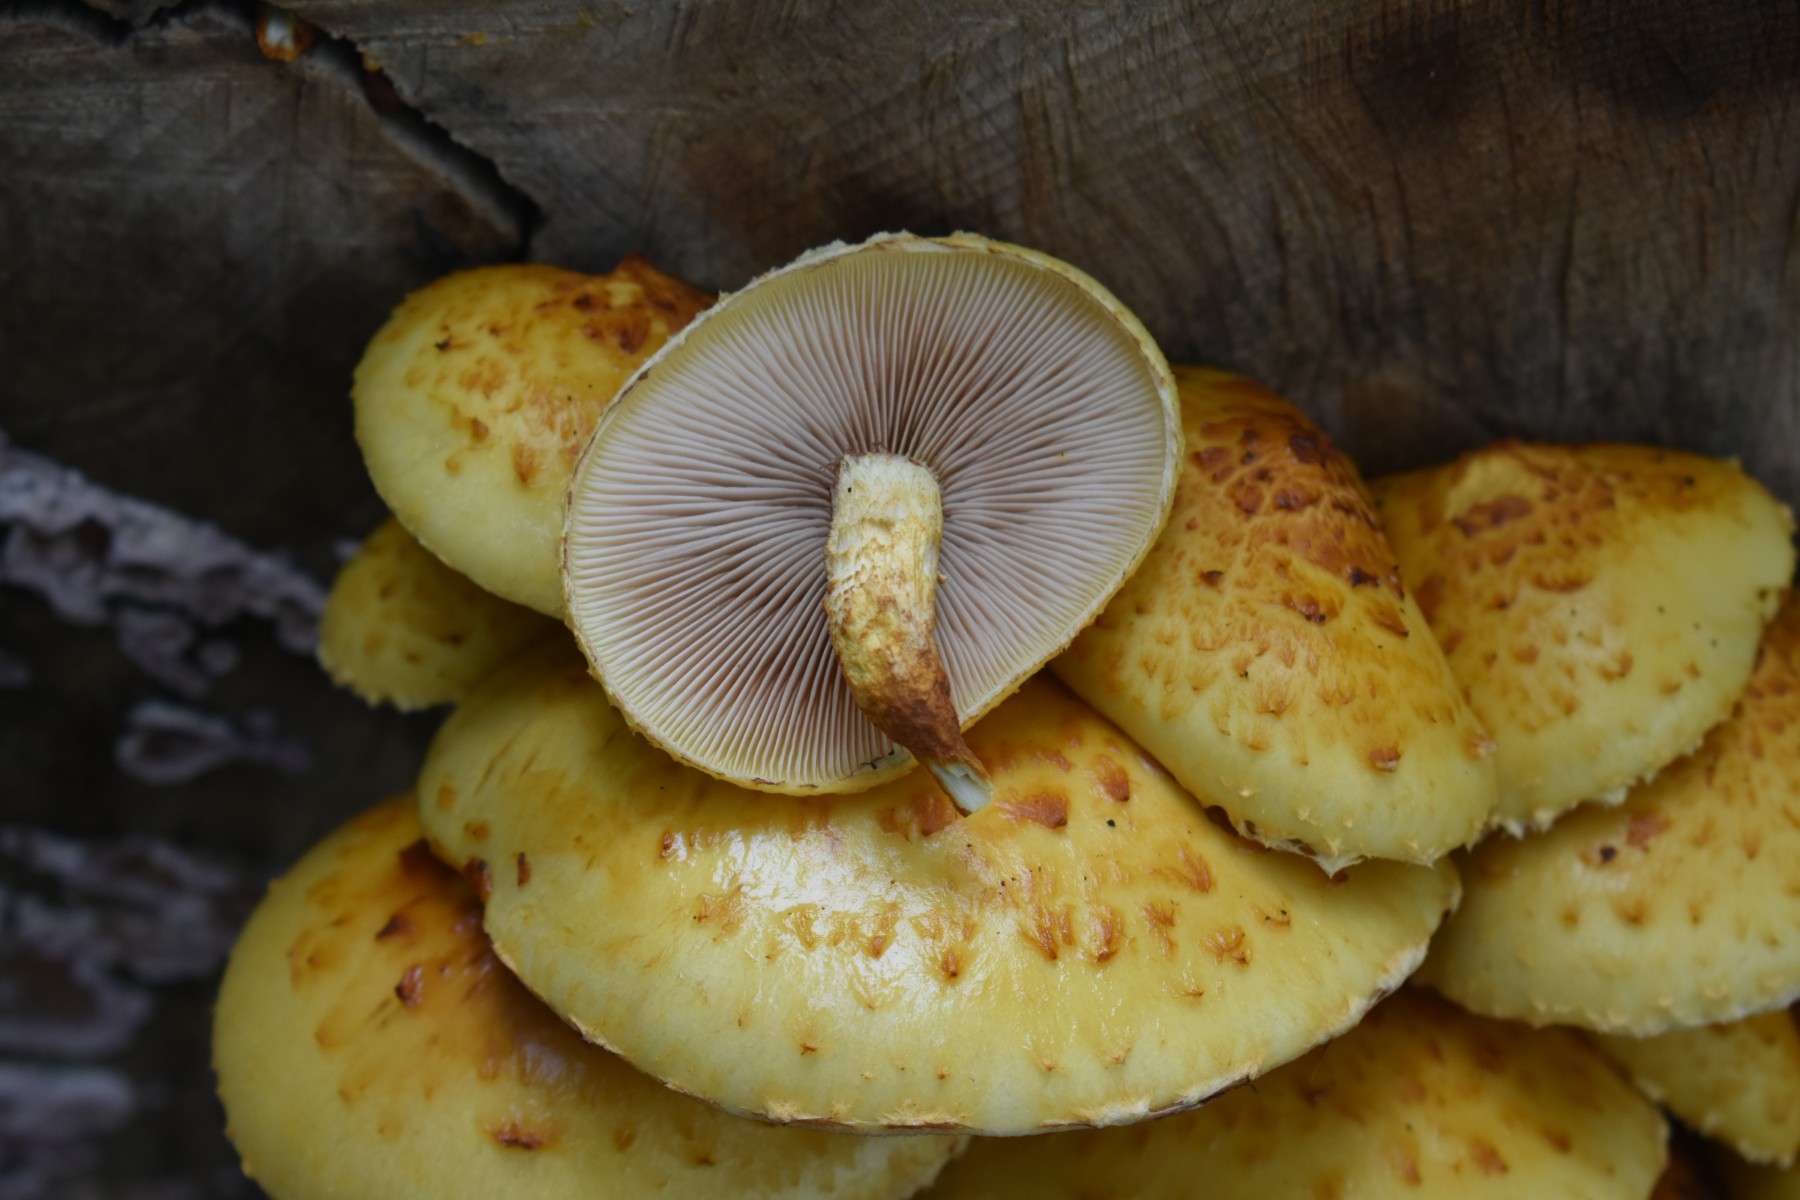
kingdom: Fungi
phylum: Basidiomycota
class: Agaricomycetes
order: Agaricales
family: Strophariaceae
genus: Pholiota
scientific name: Pholiota adiposa
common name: højtsiddende skælhat
